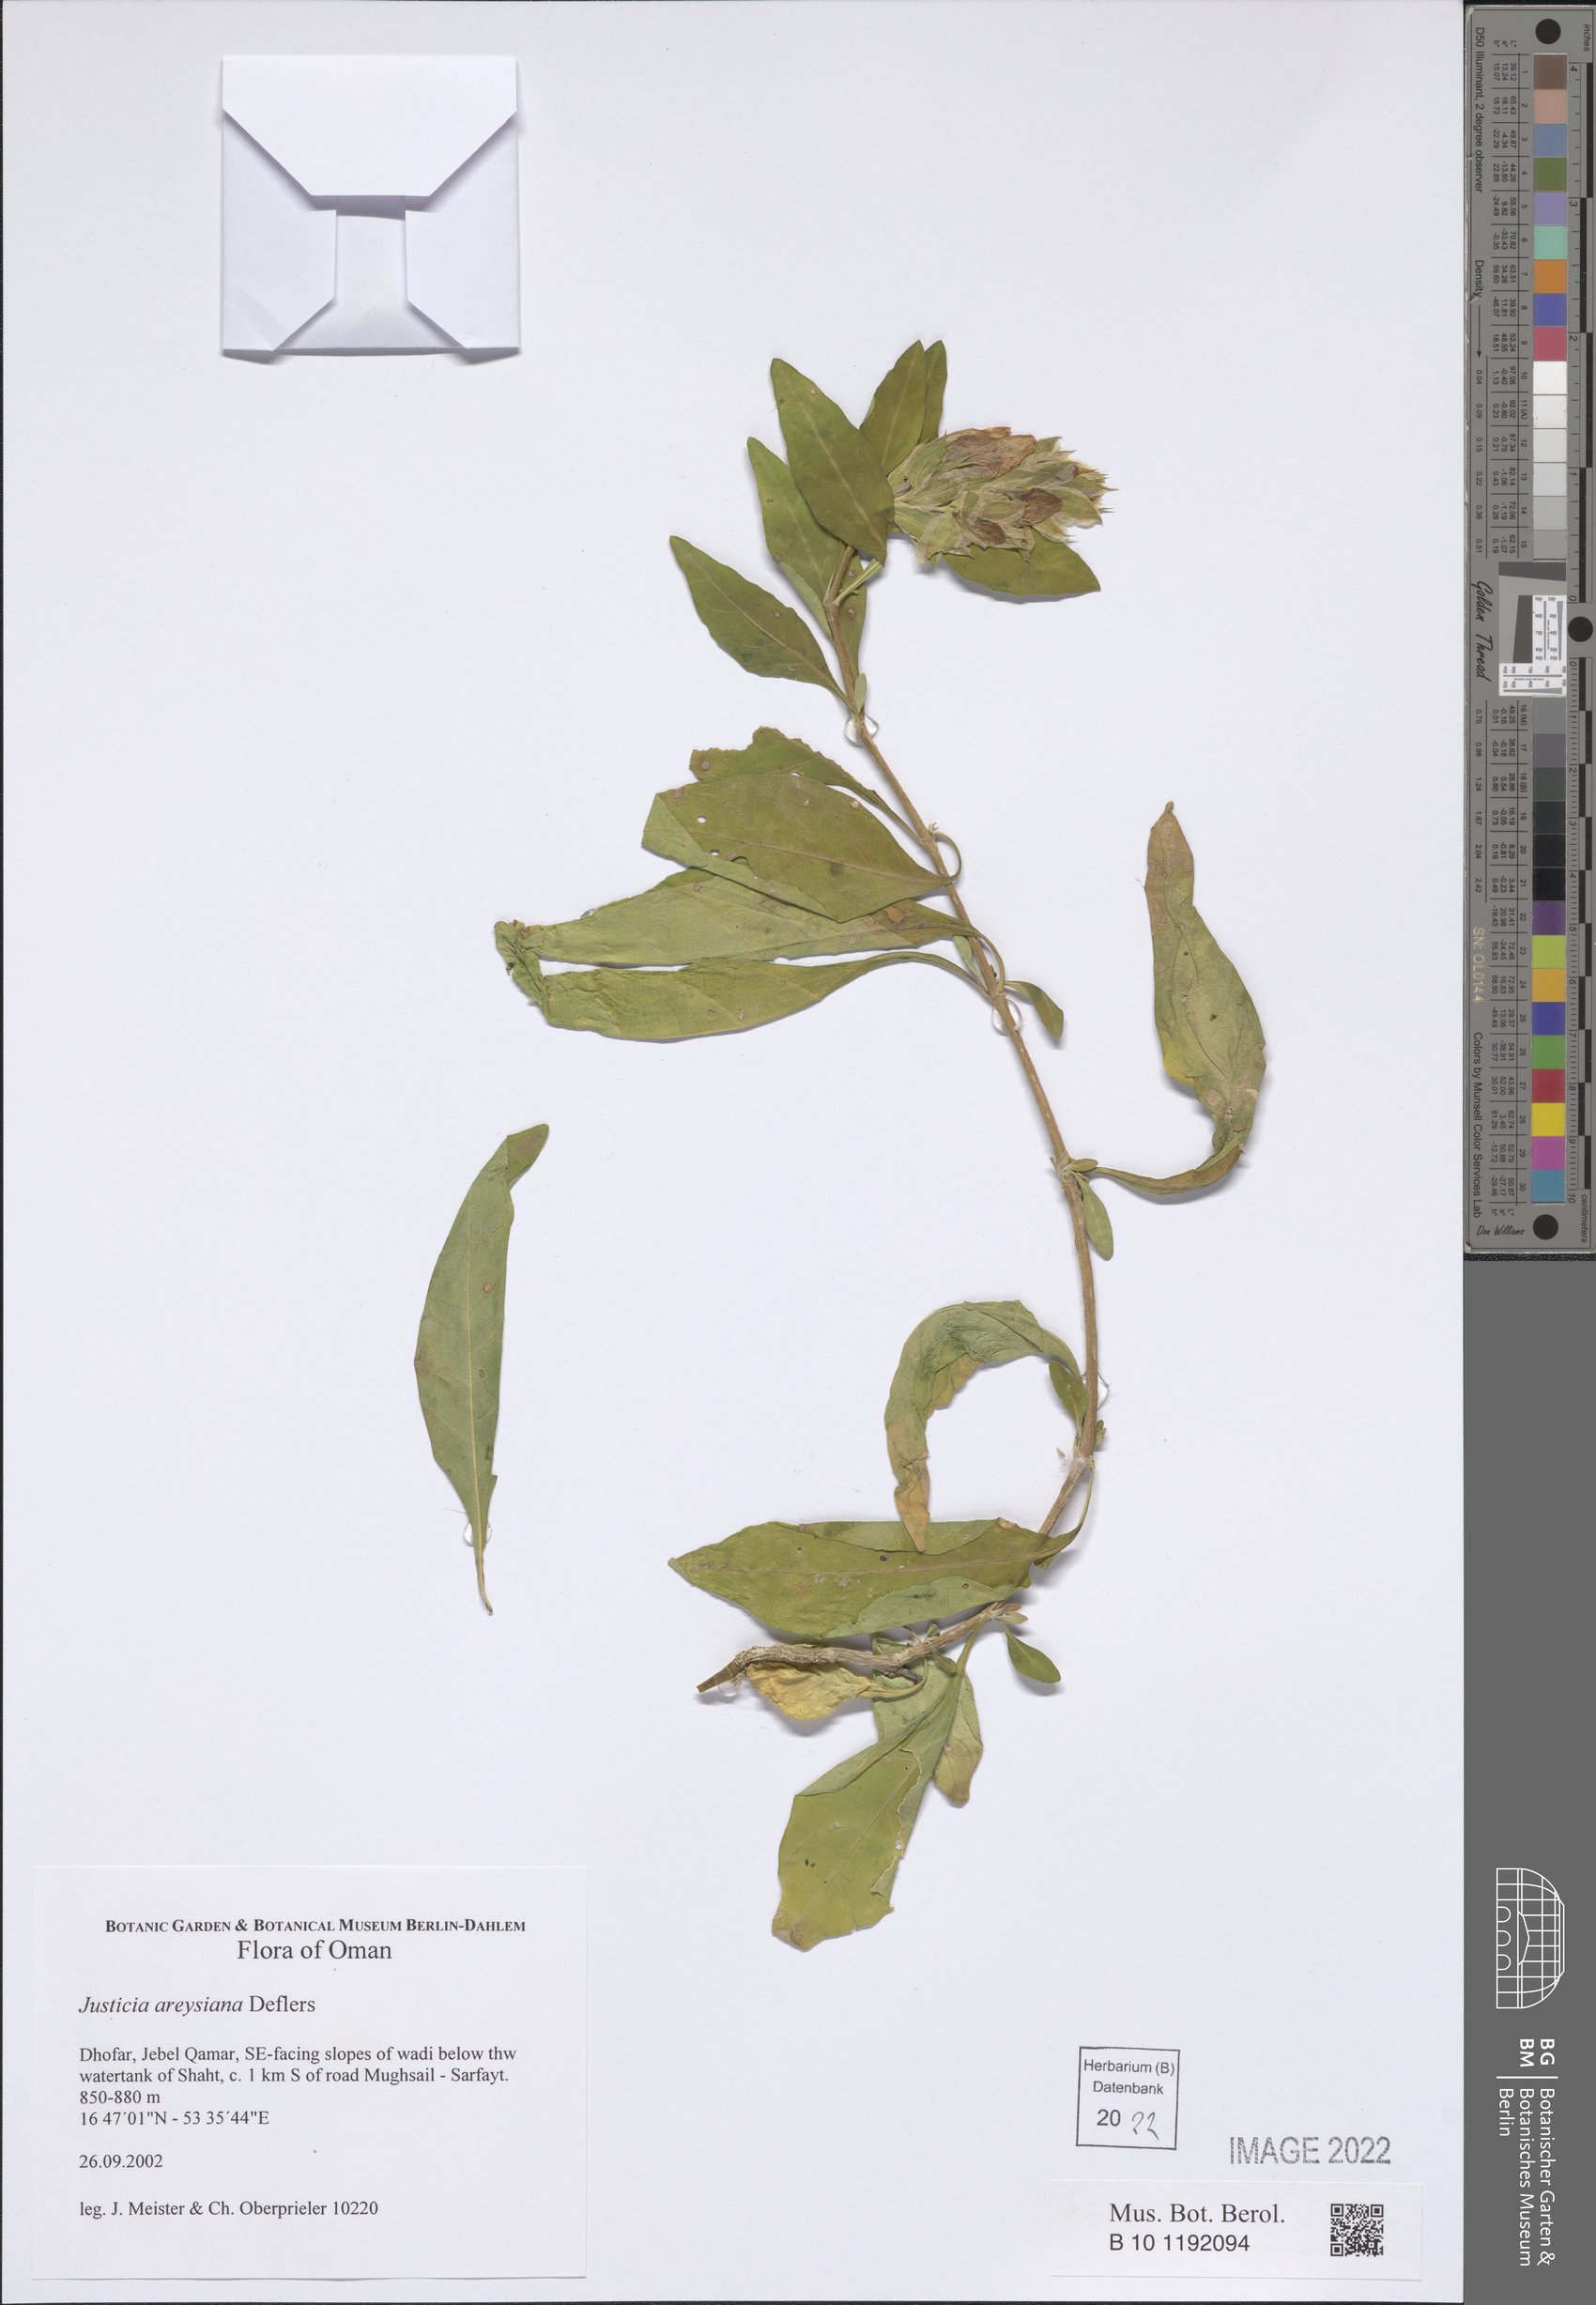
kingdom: Plantae
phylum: Tracheophyta
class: Magnoliopsida
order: Lamiales
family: Acanthaceae
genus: Justicia
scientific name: Justicia areysiana
